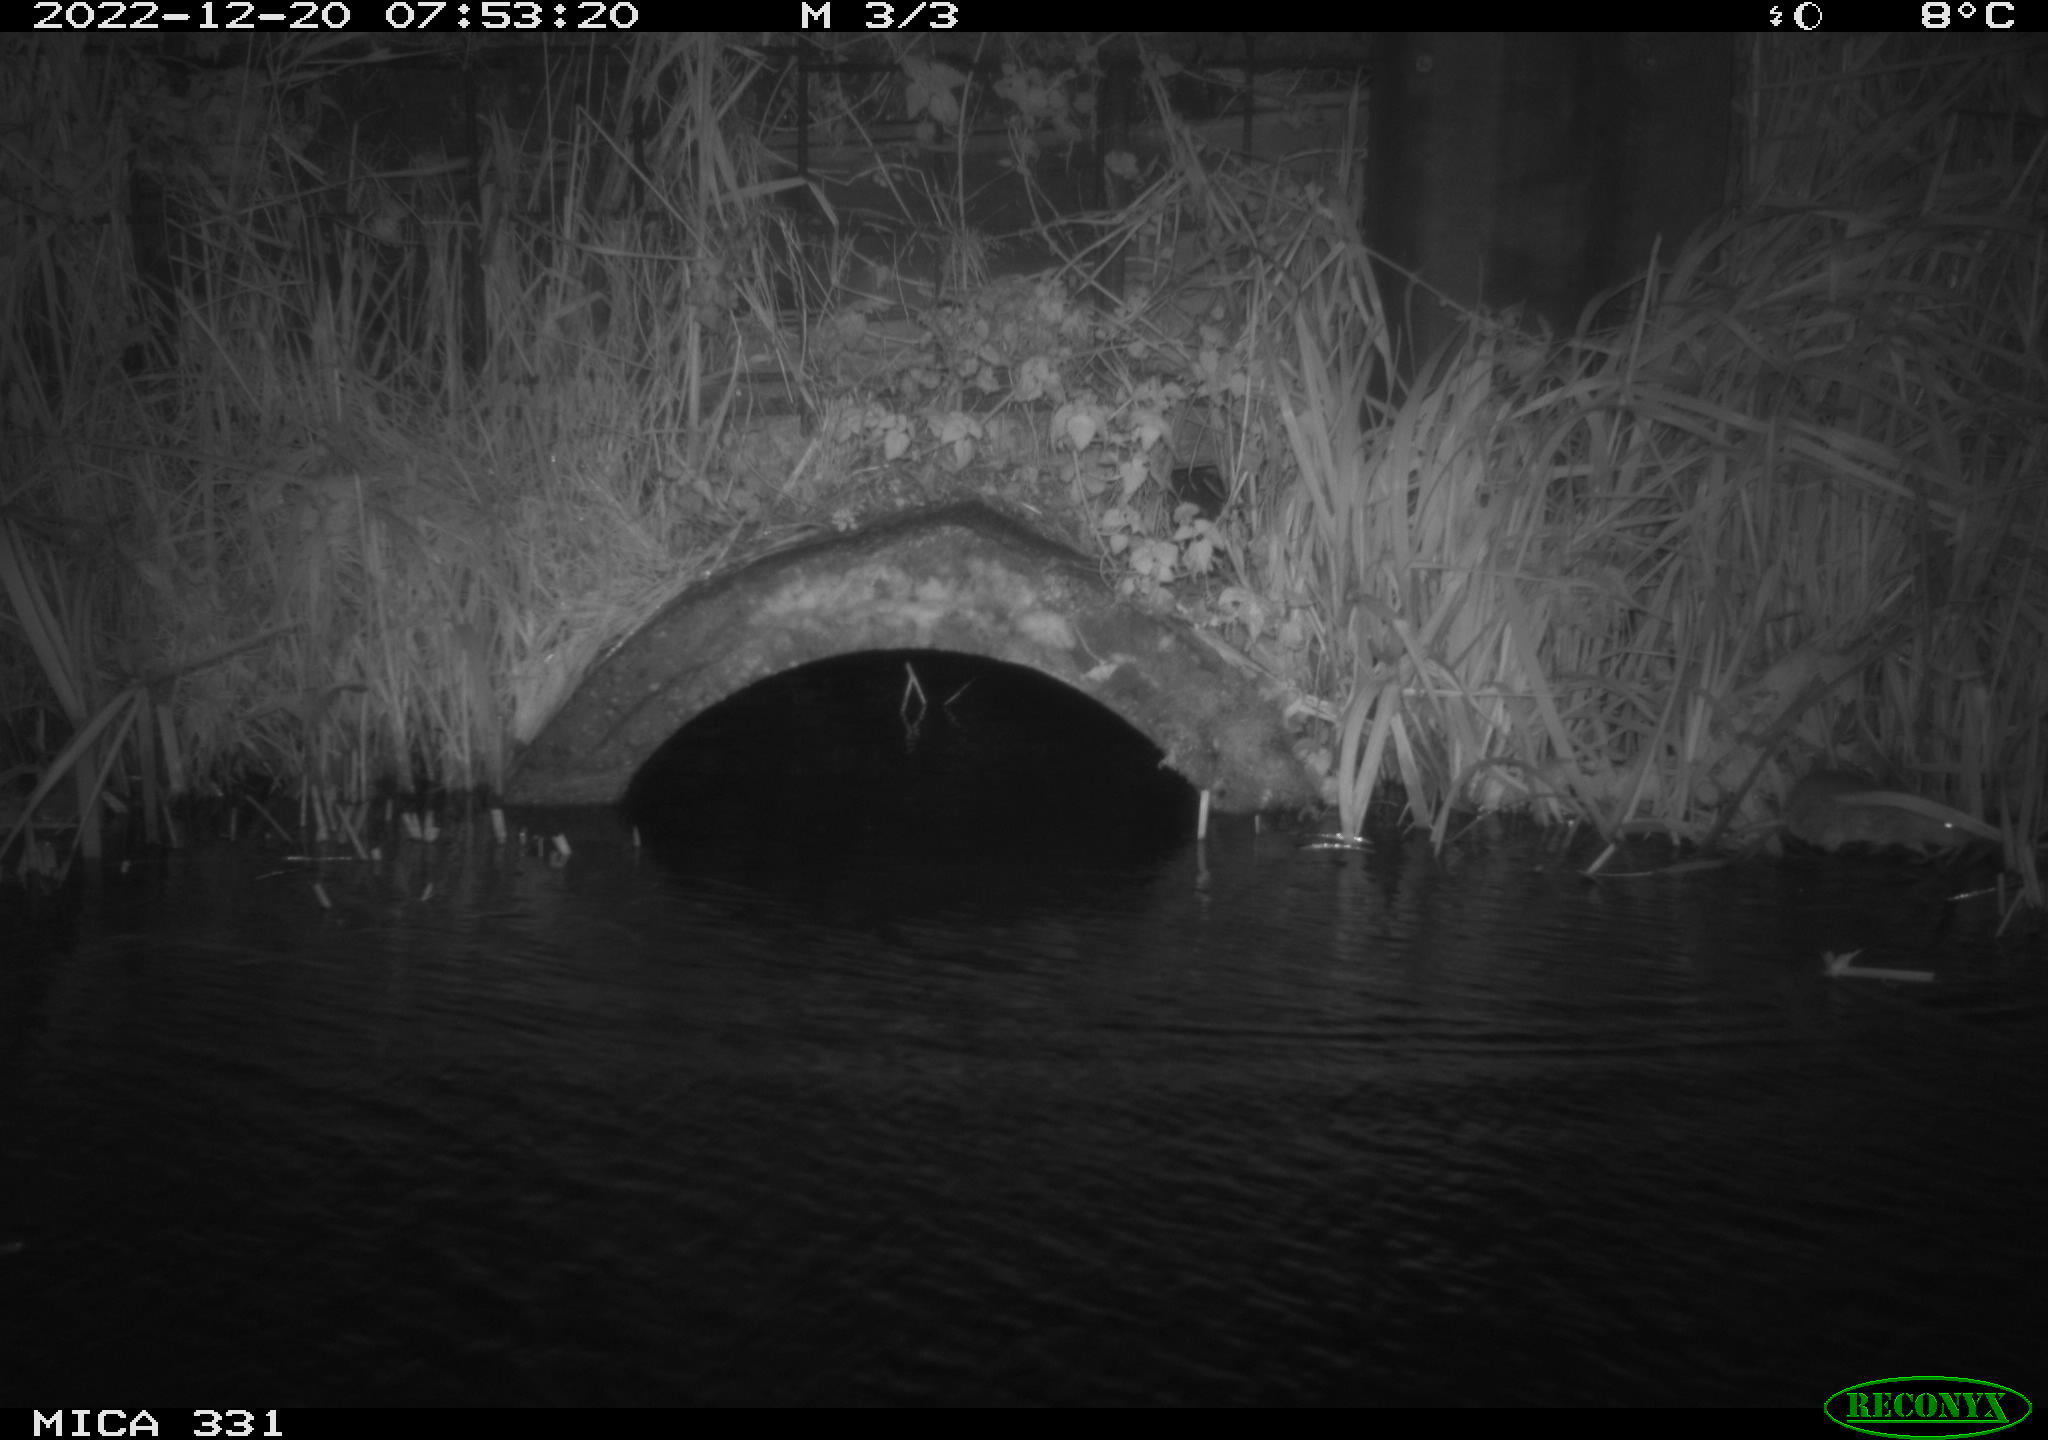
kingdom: Animalia
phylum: Chordata
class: Mammalia
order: Rodentia
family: Muridae
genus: Rattus
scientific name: Rattus norvegicus
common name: Brown rat
